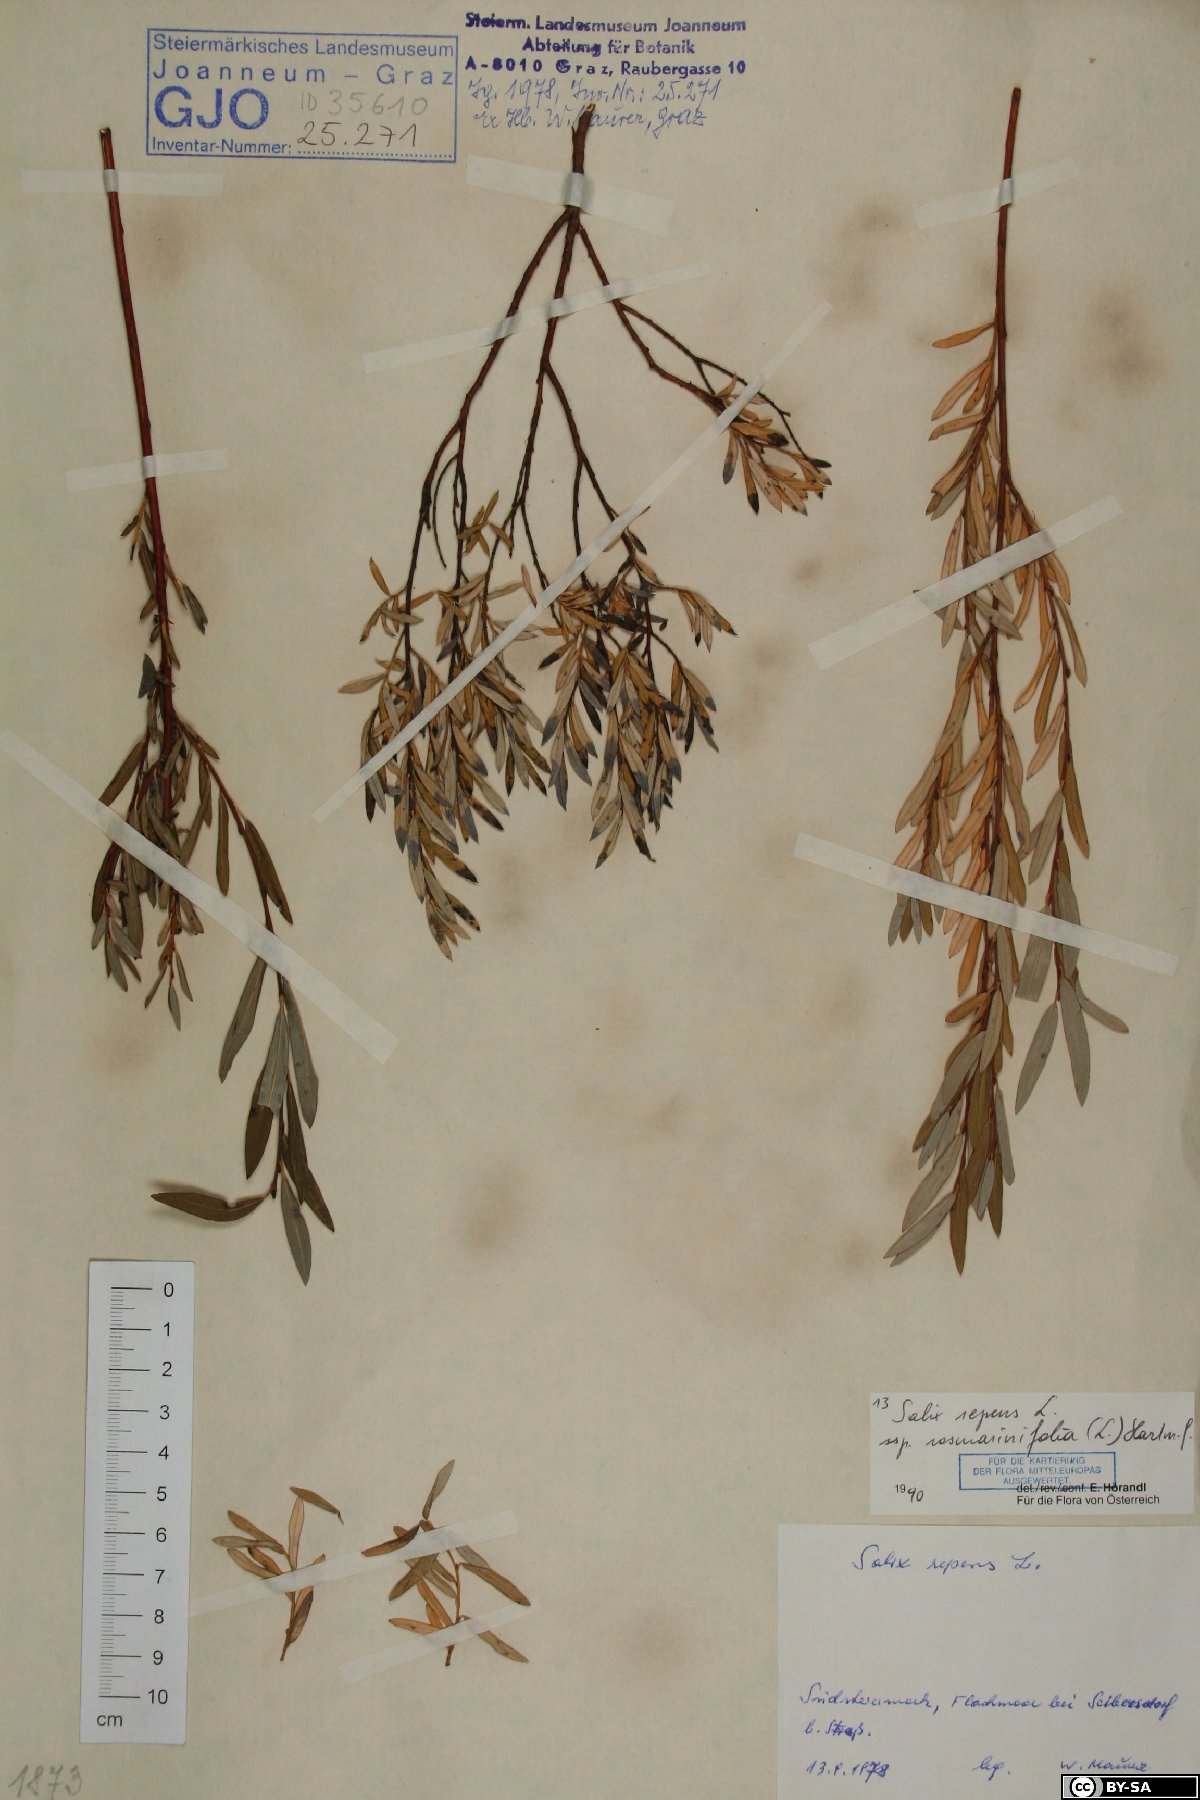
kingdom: Plantae
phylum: Tracheophyta
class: Magnoliopsida
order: Malpighiales
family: Salicaceae
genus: Salix
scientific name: Salix repens
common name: Creeping willow
